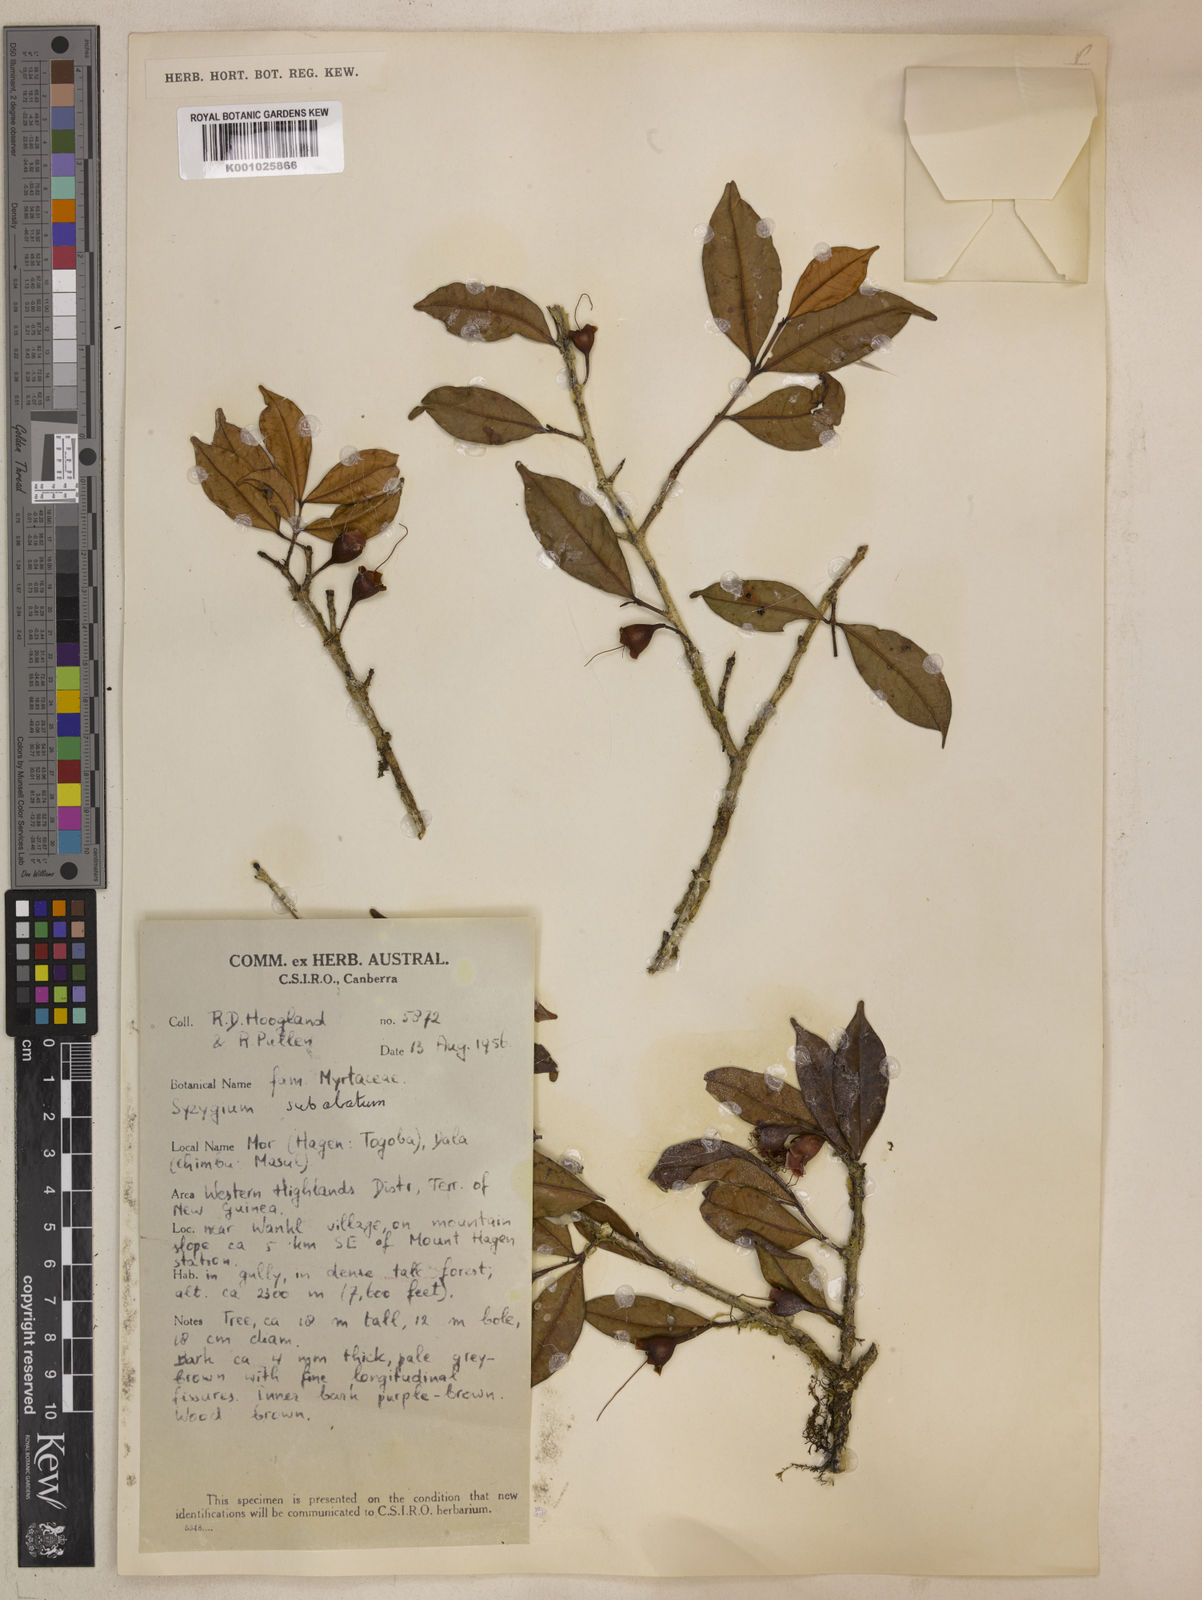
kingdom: Plantae
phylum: Tracheophyta
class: Magnoliopsida
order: Myrtales
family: Myrtaceae
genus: Syzygium
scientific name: Syzygium subalatum
